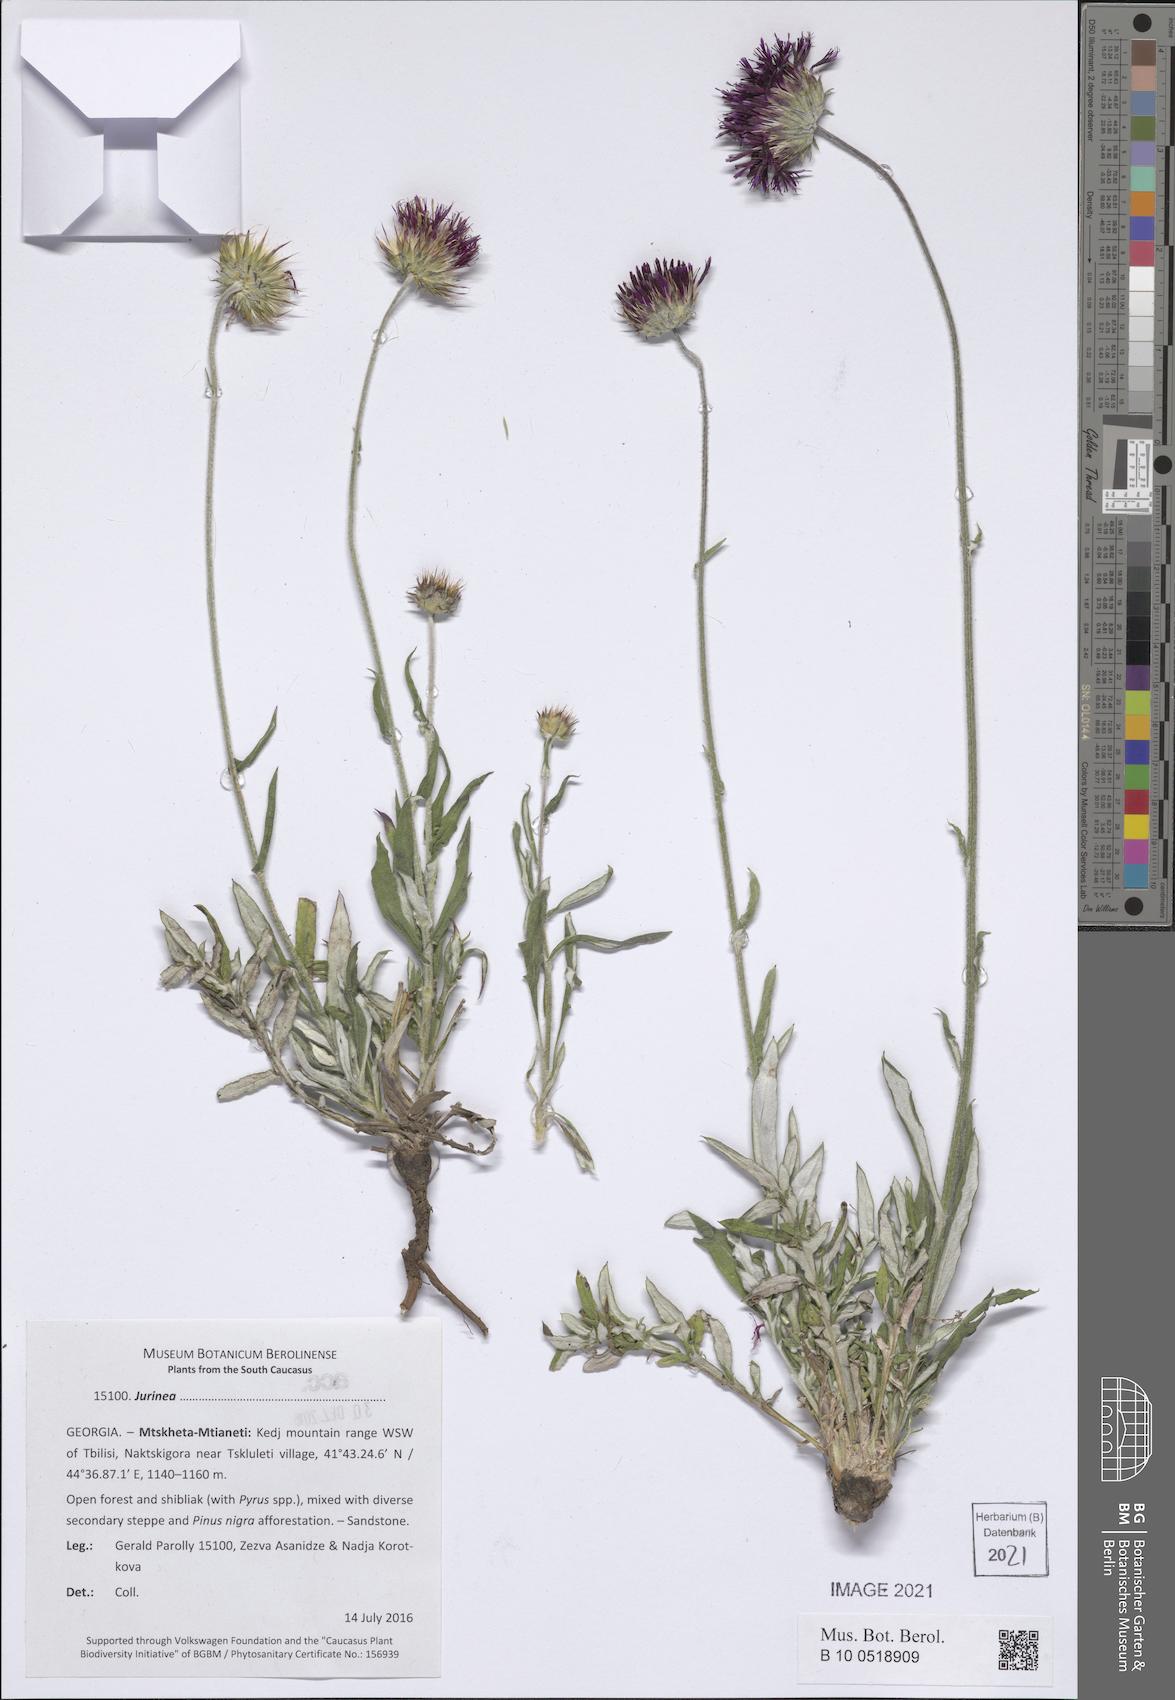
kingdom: Plantae
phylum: Tracheophyta
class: Magnoliopsida
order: Asterales
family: Asteraceae
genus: Jurinea
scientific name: Jurinea
